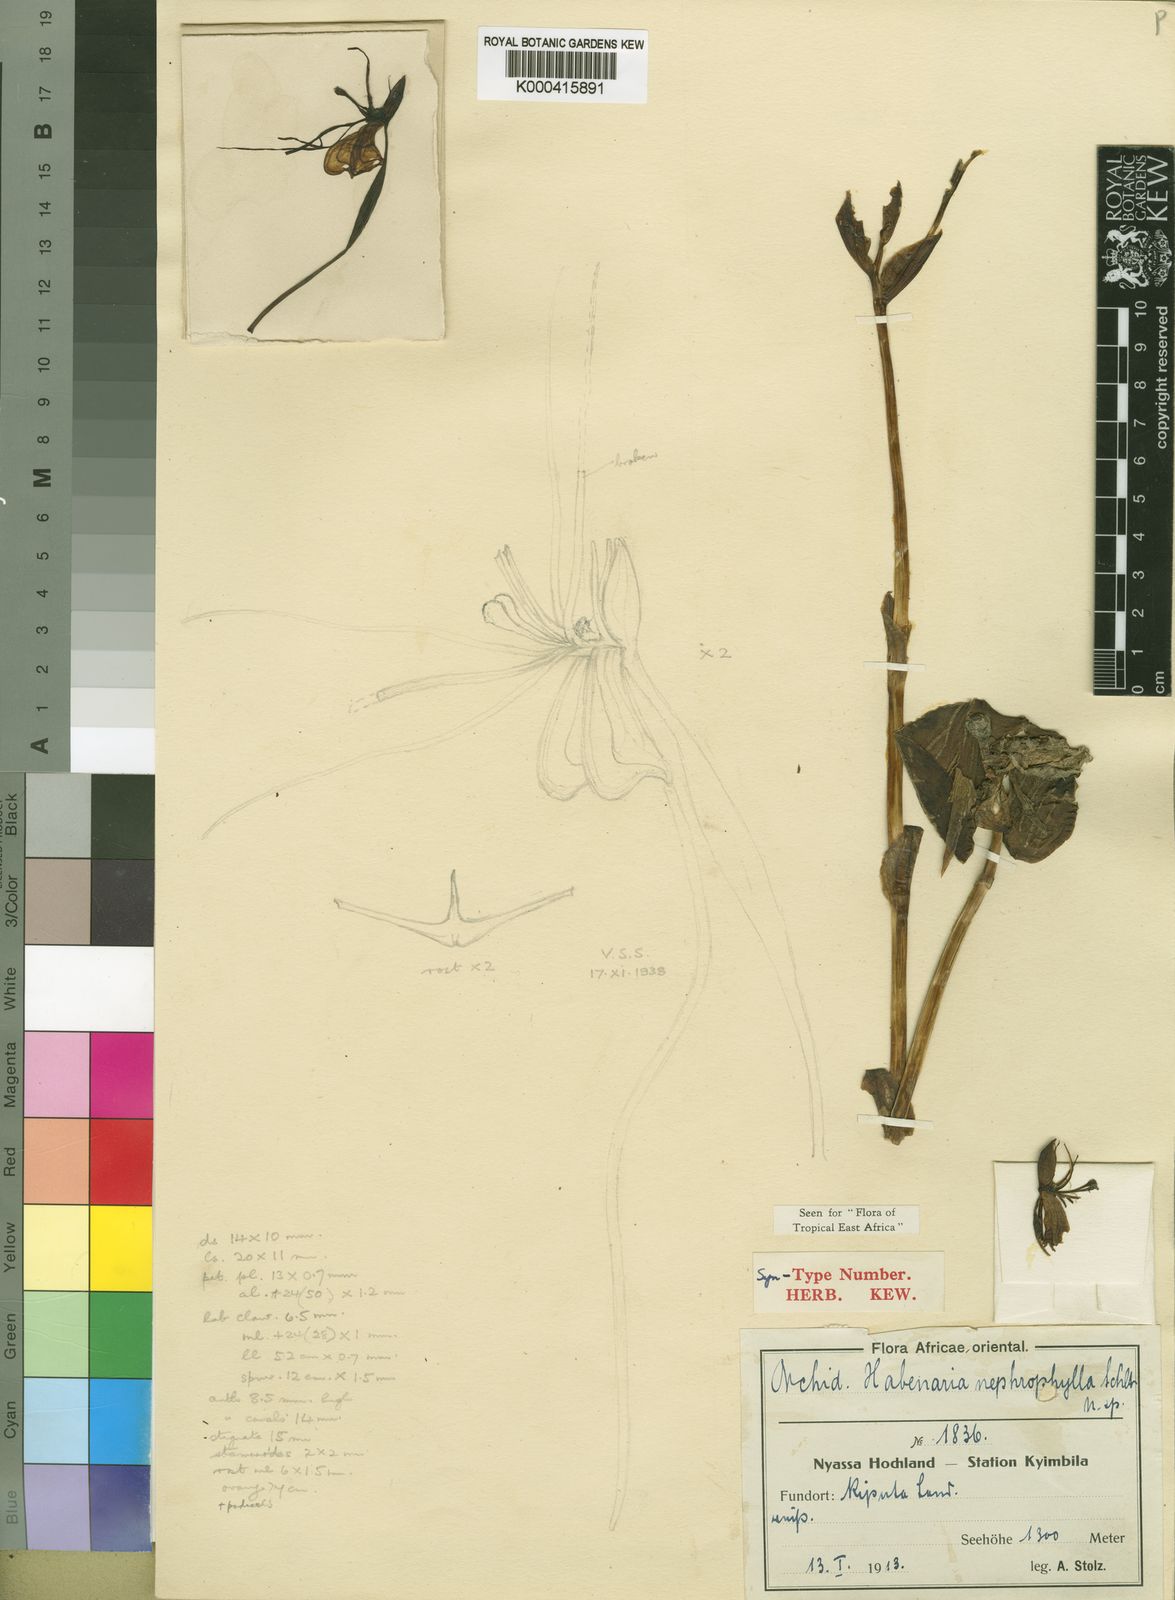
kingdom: Plantae
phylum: Tracheophyta
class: Liliopsida
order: Asparagales
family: Orchidaceae
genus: Habenaria
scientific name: Habenaria
